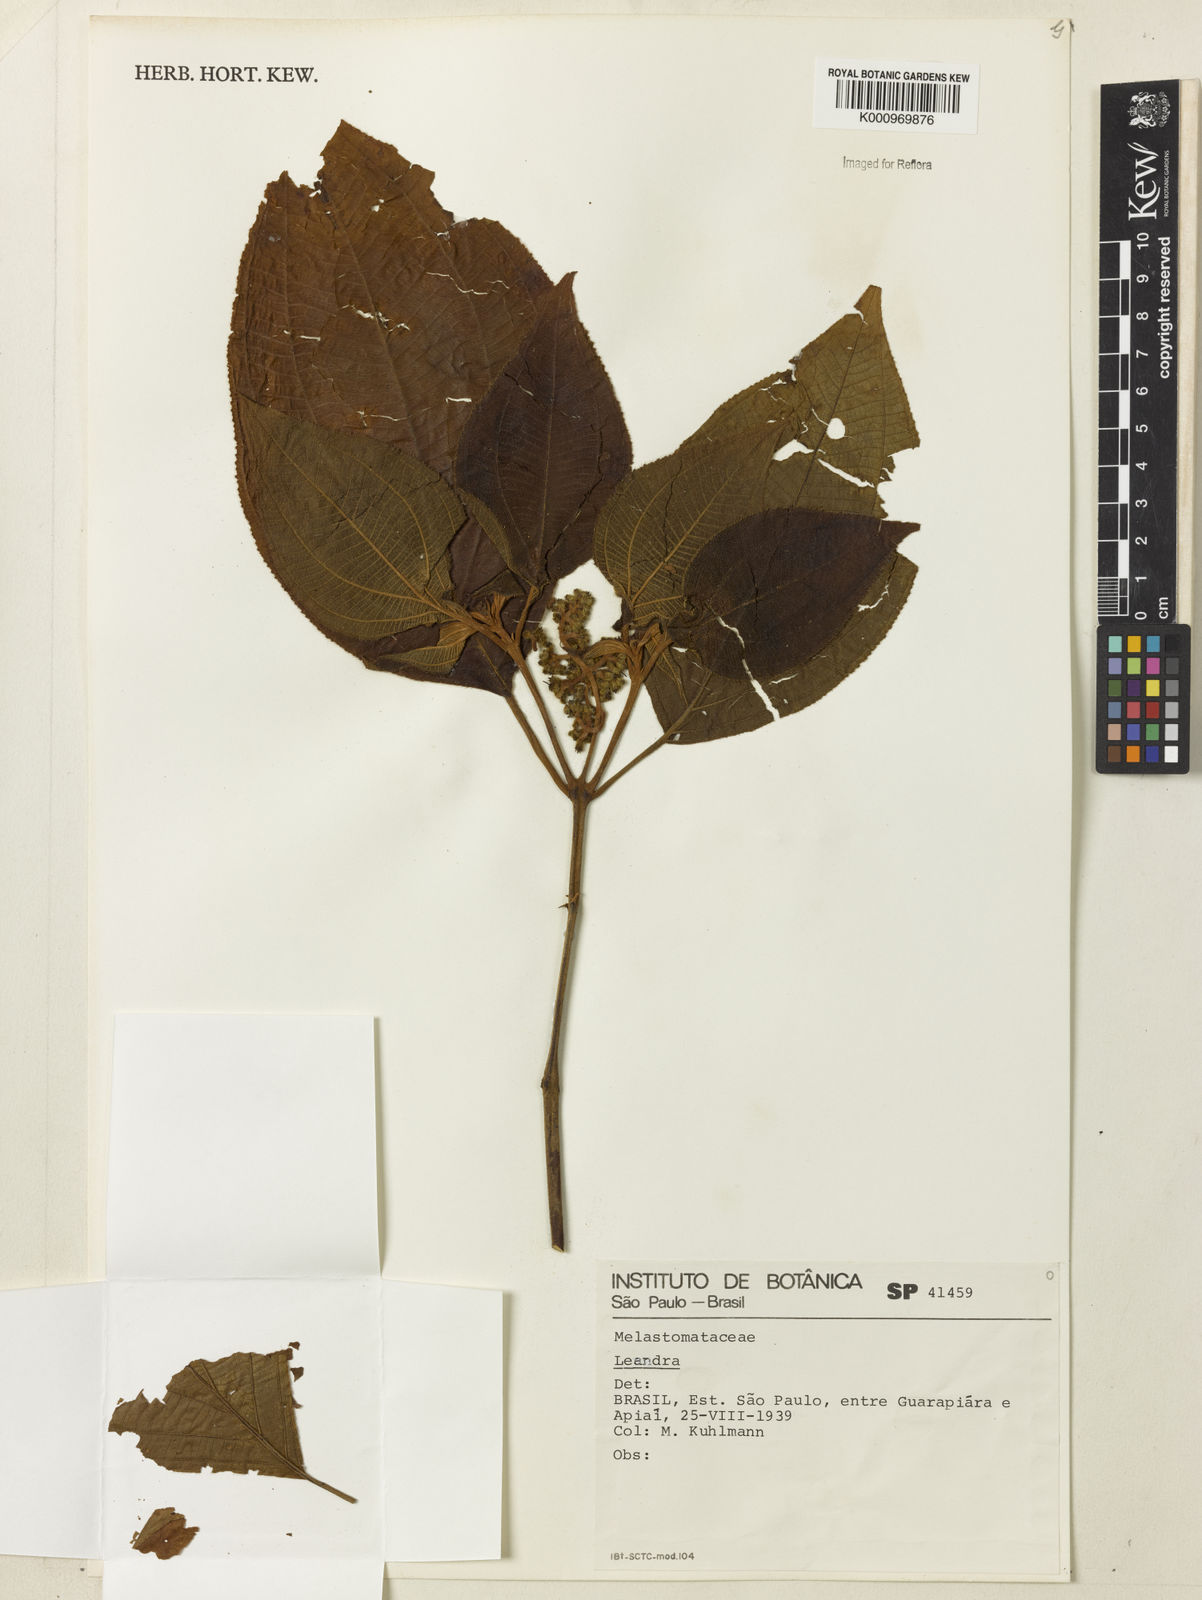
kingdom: Plantae
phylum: Tracheophyta
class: Magnoliopsida
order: Myrtales
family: Melastomataceae
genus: Miconia
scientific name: Miconia
